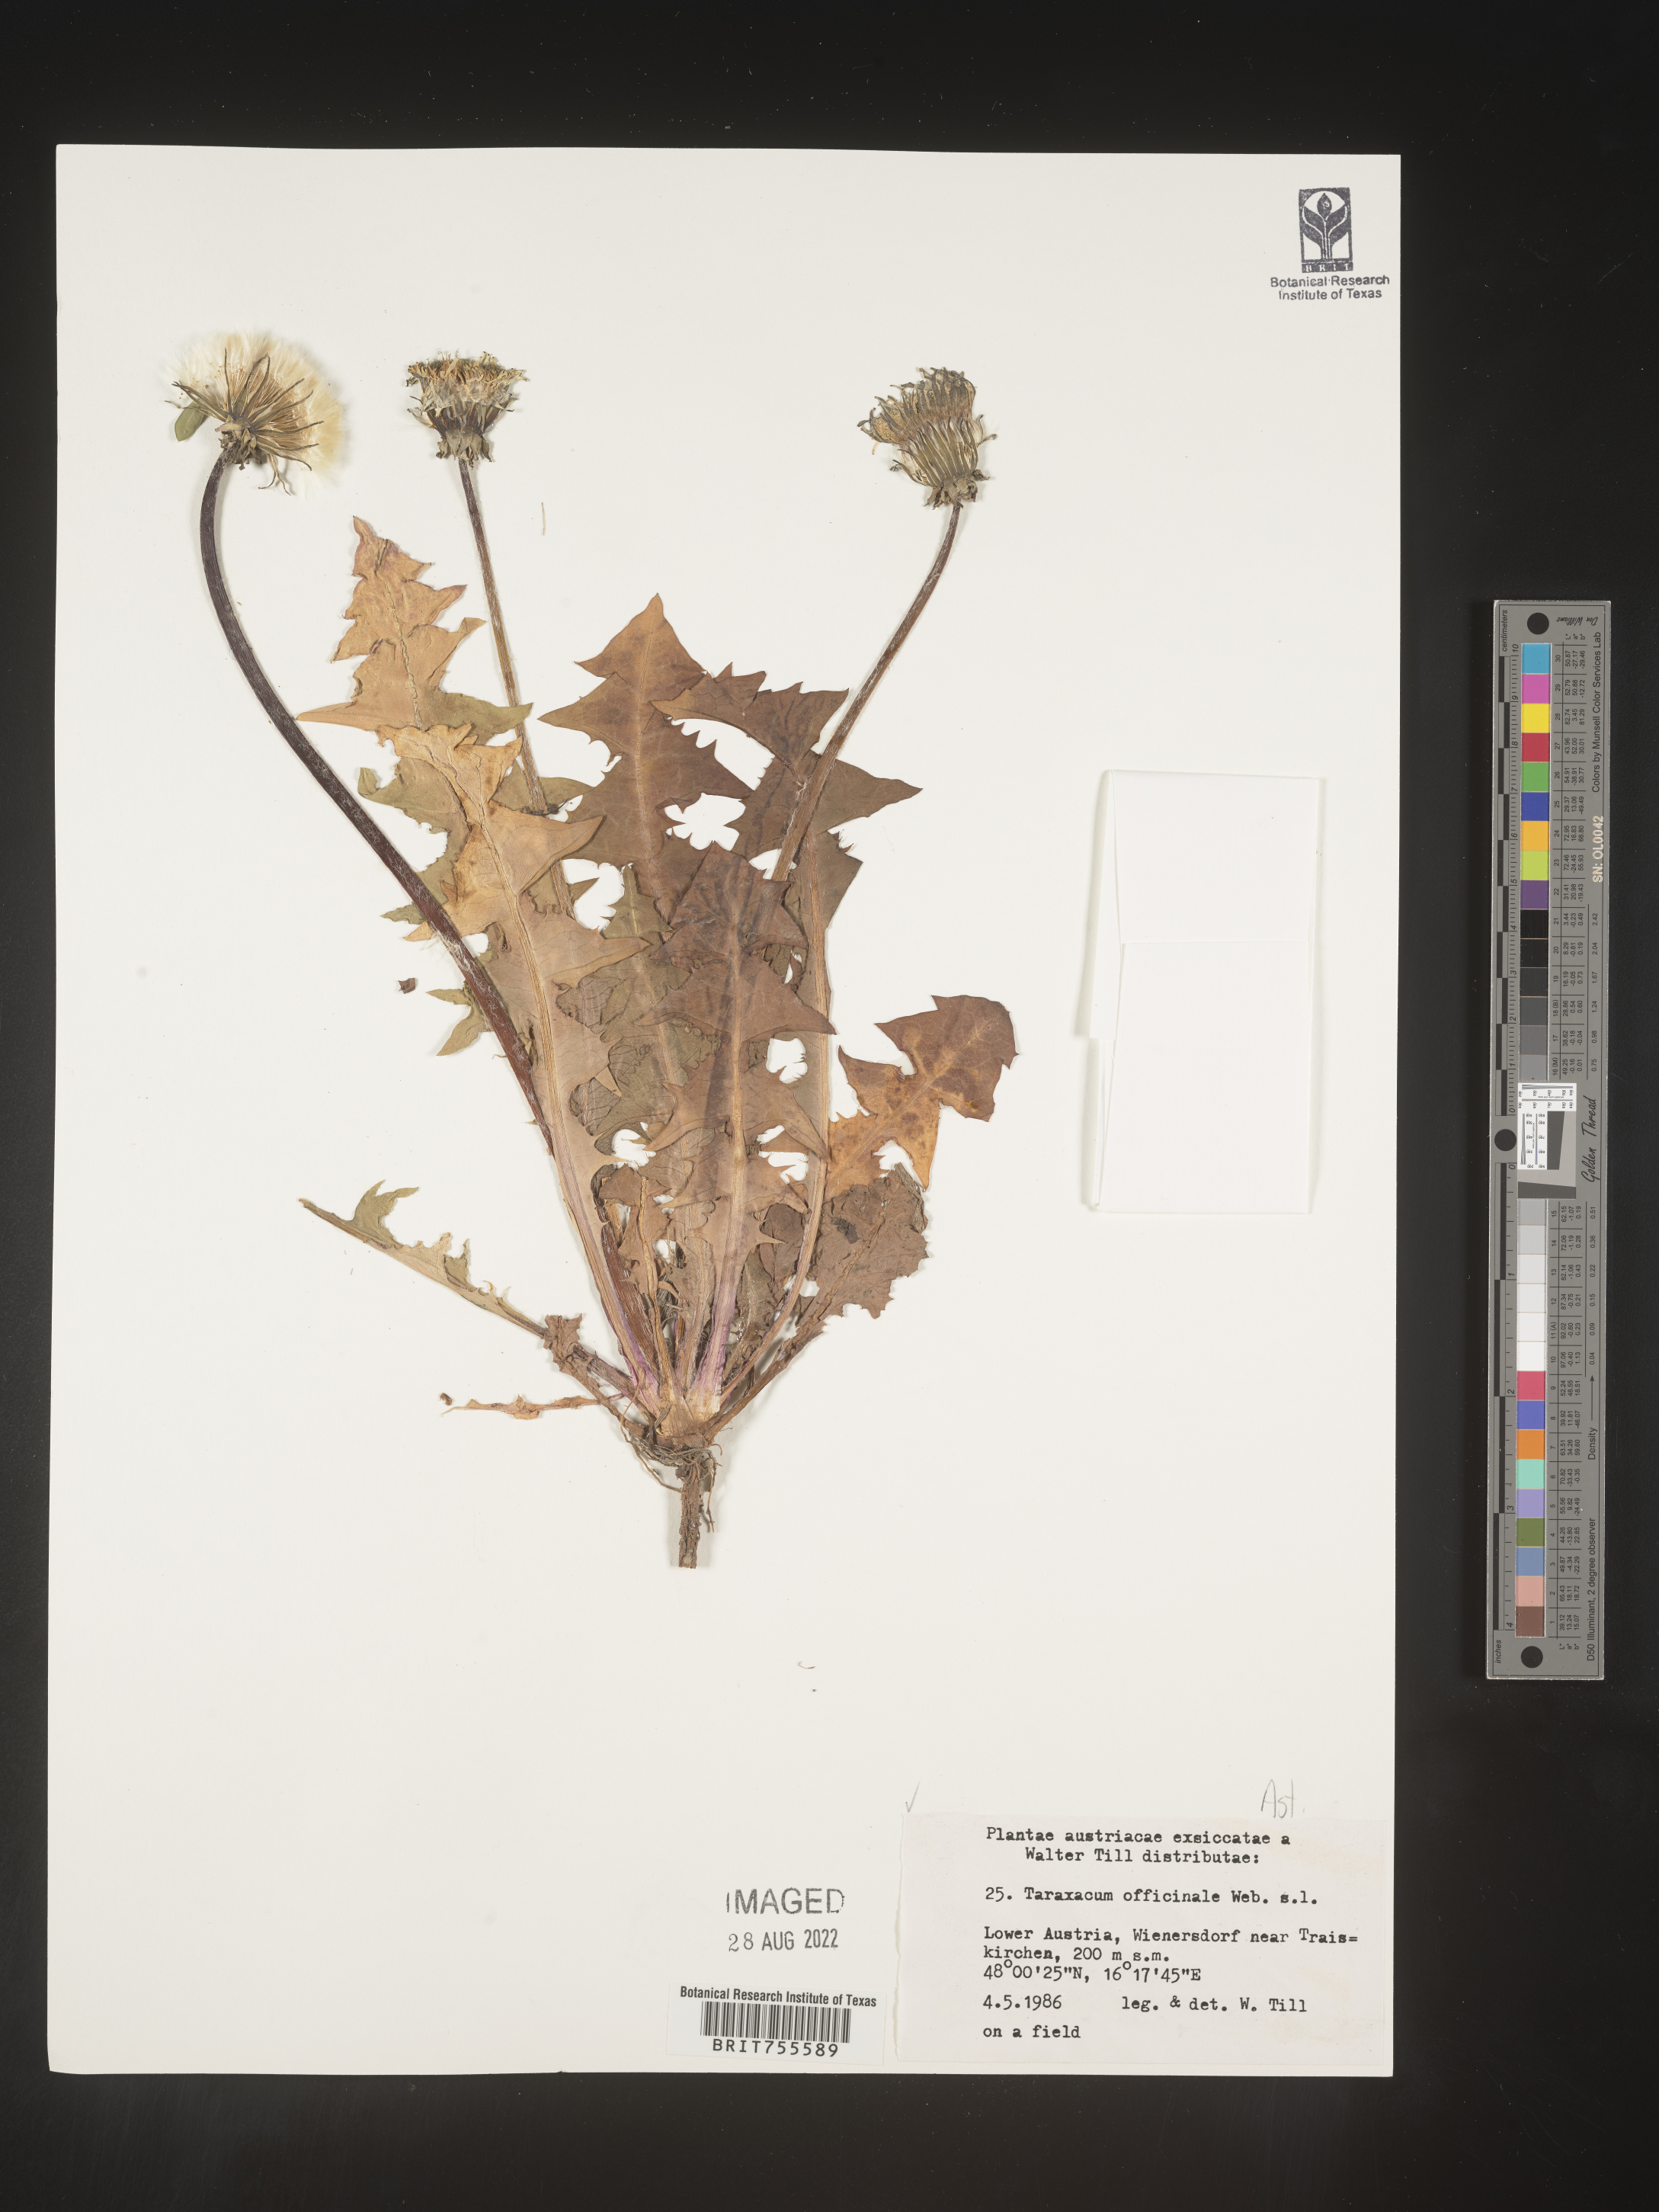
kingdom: Plantae
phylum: Tracheophyta
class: Magnoliopsida
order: Asterales
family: Asteraceae
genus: Taraxacum
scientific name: Taraxacum
